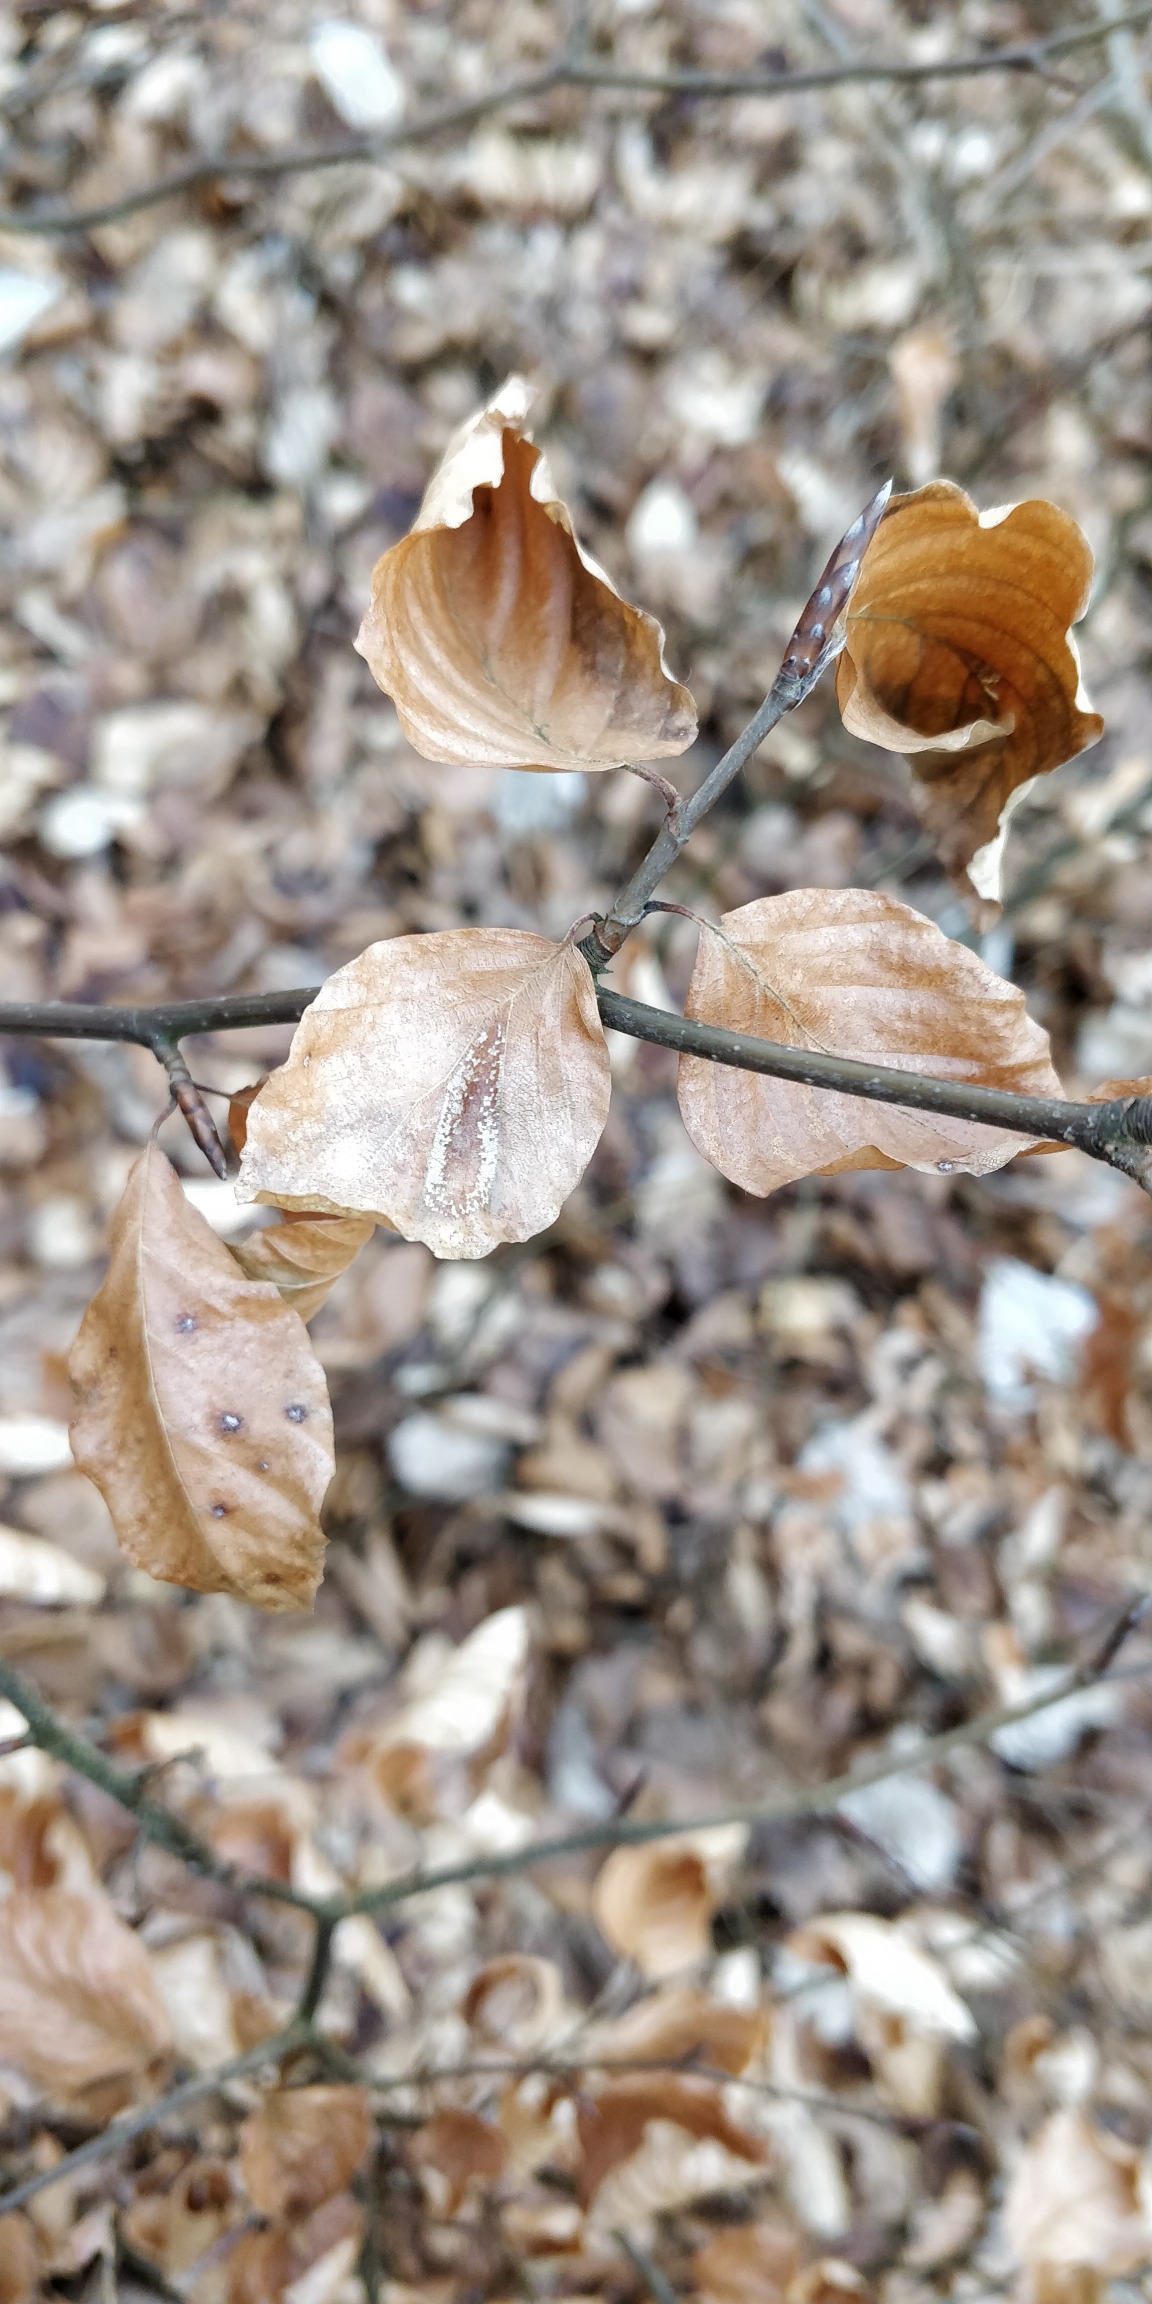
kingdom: Plantae
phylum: Tracheophyta
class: Magnoliopsida
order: Fagales
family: Fagaceae
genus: Fagus
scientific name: Fagus sylvatica
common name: Bøg
